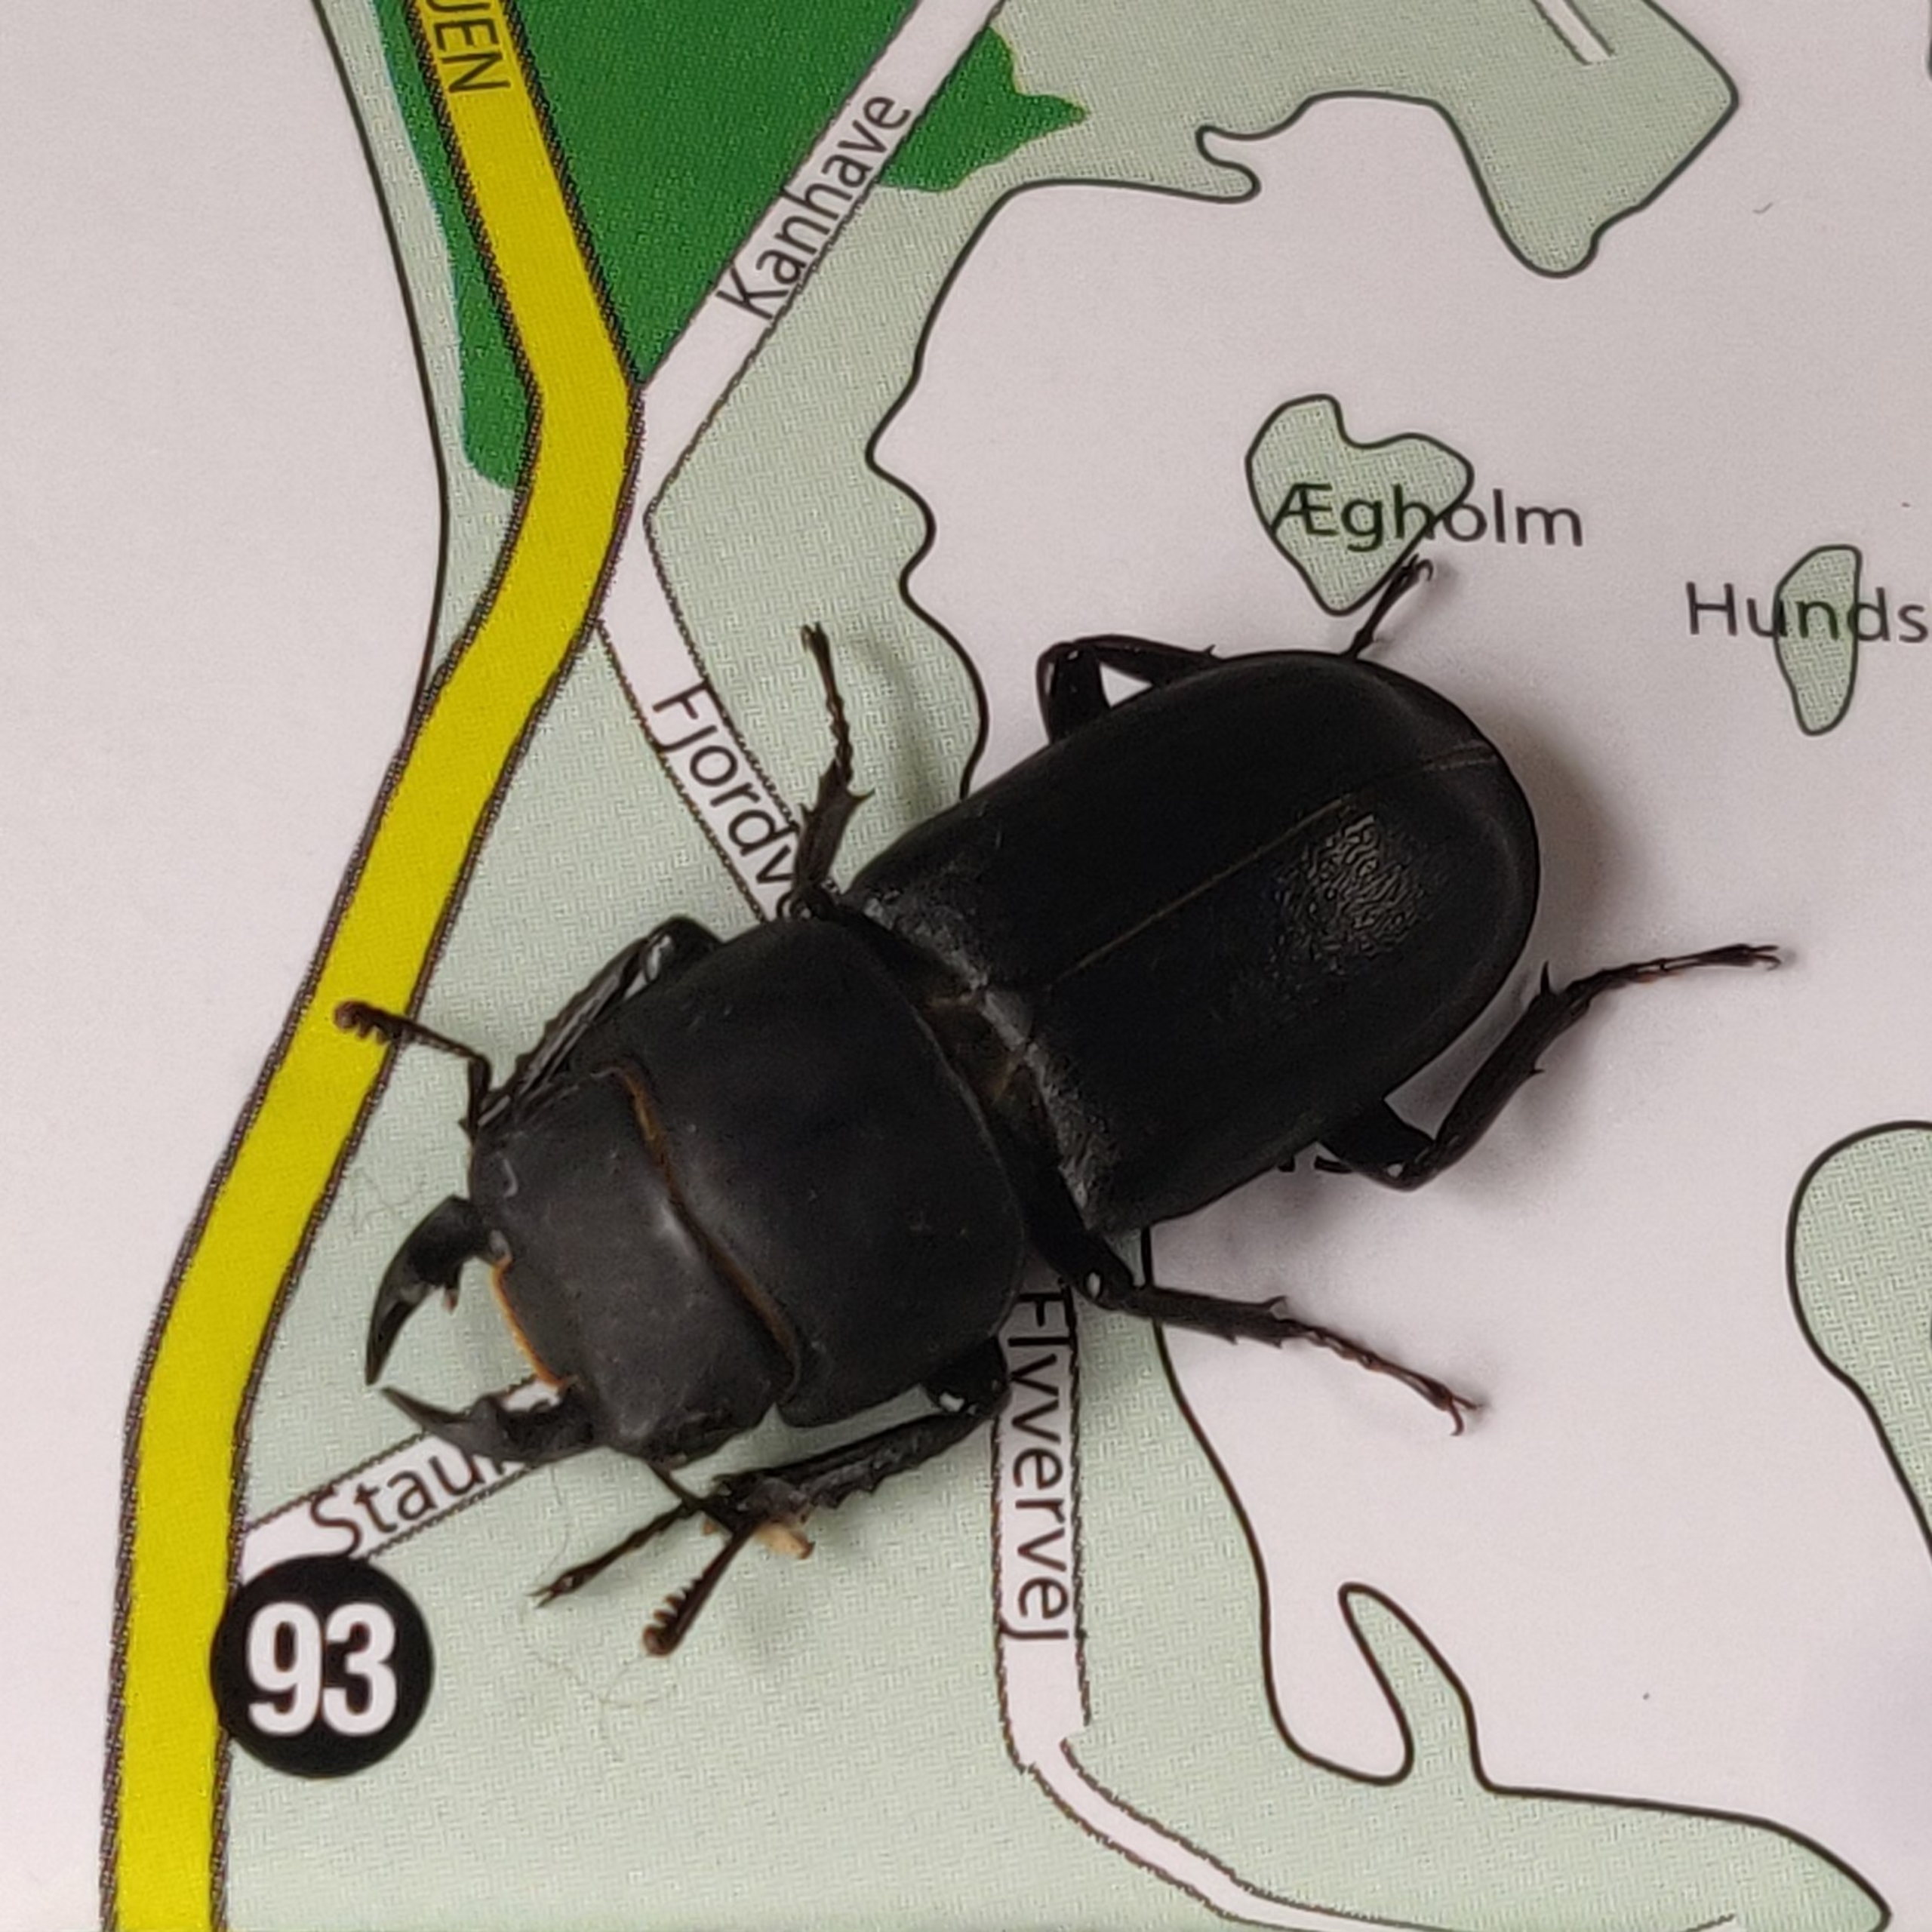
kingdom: Animalia
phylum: Arthropoda
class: Insecta
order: Coleoptera
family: Lucanidae
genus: Dorcus
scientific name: Dorcus parallelipipedus
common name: Bøghjort
